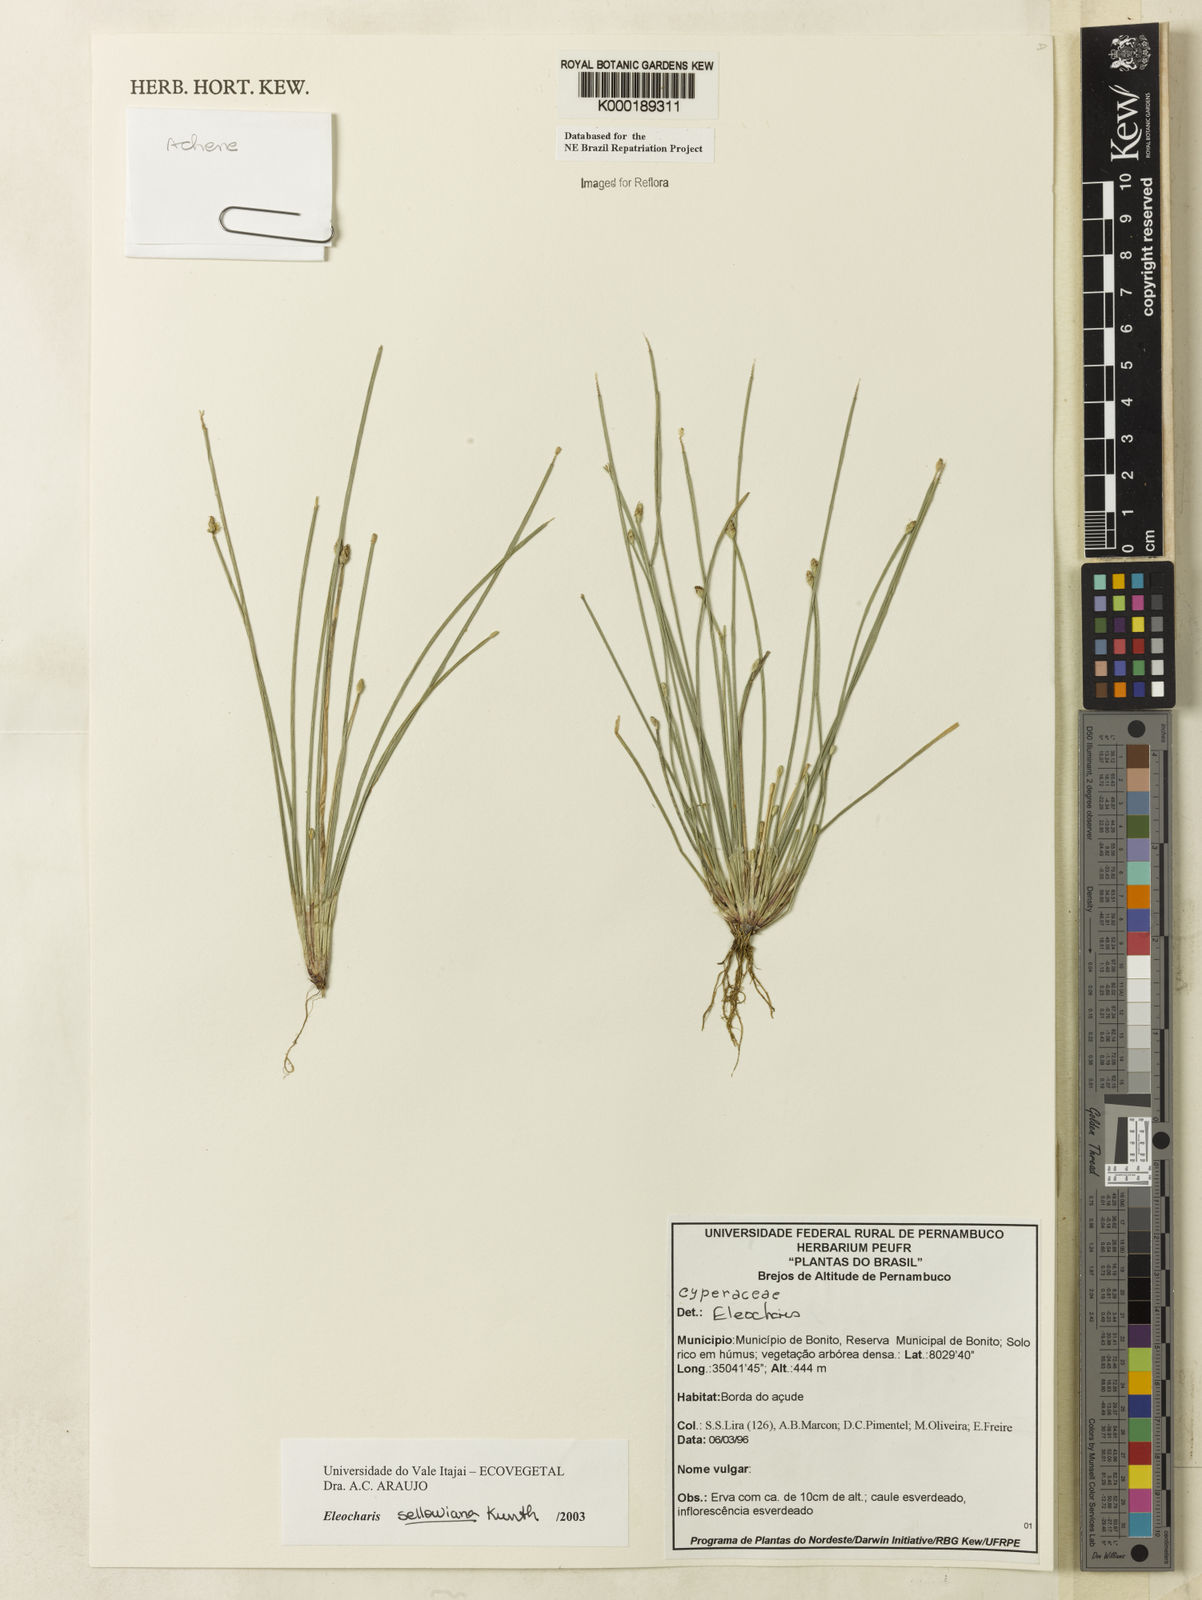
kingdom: Plantae
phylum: Tracheophyta
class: Liliopsida
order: Poales
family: Cyperaceae
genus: Eleocharis
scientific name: Eleocharis sellowiana
